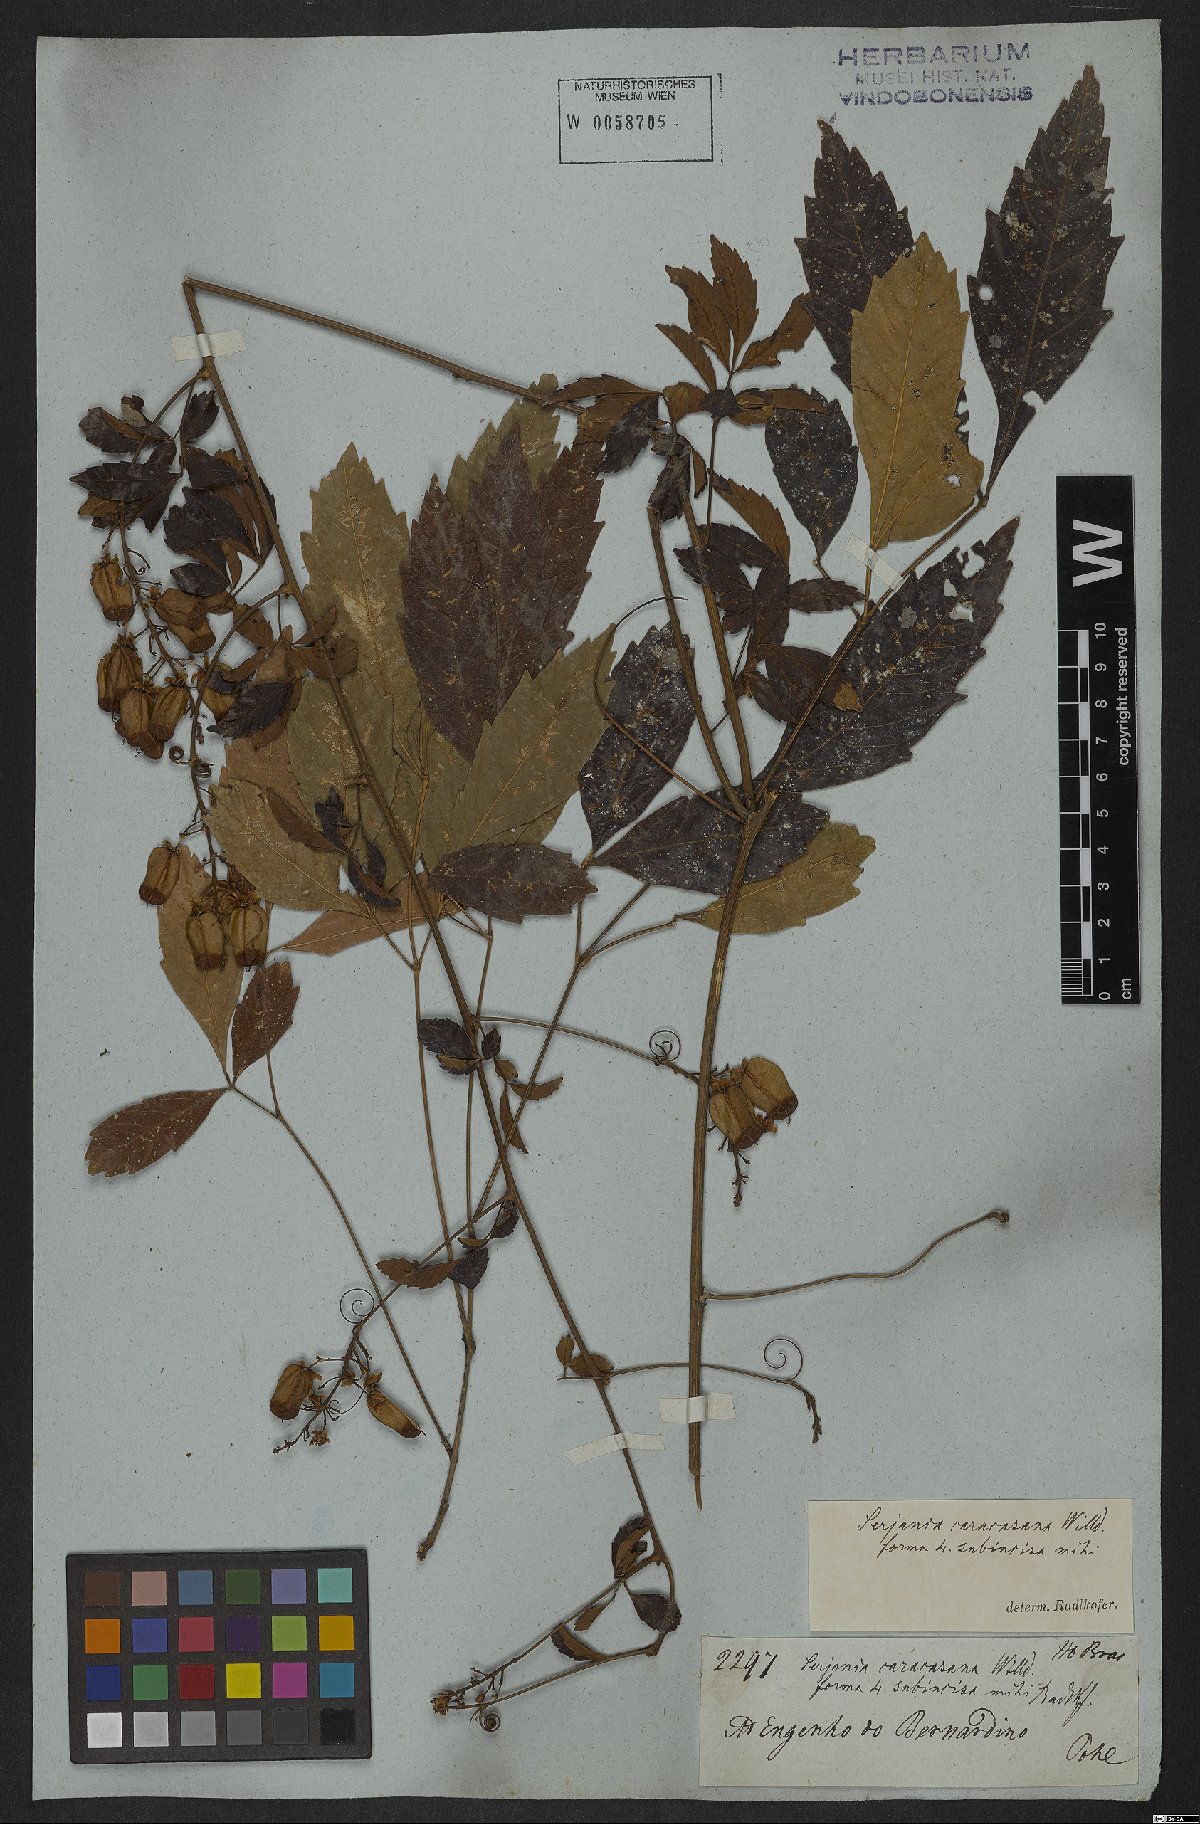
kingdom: Plantae
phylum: Tracheophyta
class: Magnoliopsida
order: Sapindales
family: Sapindaceae
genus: Serjania
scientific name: Serjania caracasana
